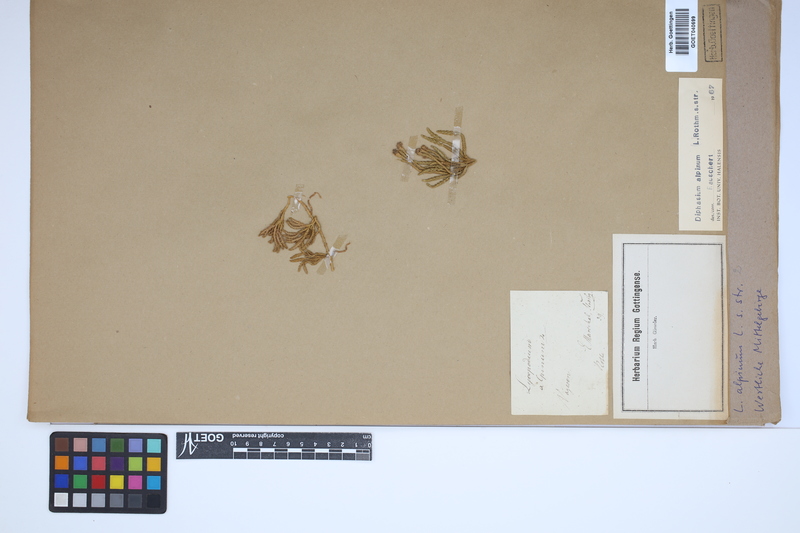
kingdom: Plantae
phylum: Tracheophyta
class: Lycopodiopsida
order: Lycopodiales
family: Lycopodiaceae
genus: Diphasiastrum
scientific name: Diphasiastrum alpinum
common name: Alpine clubmoss
